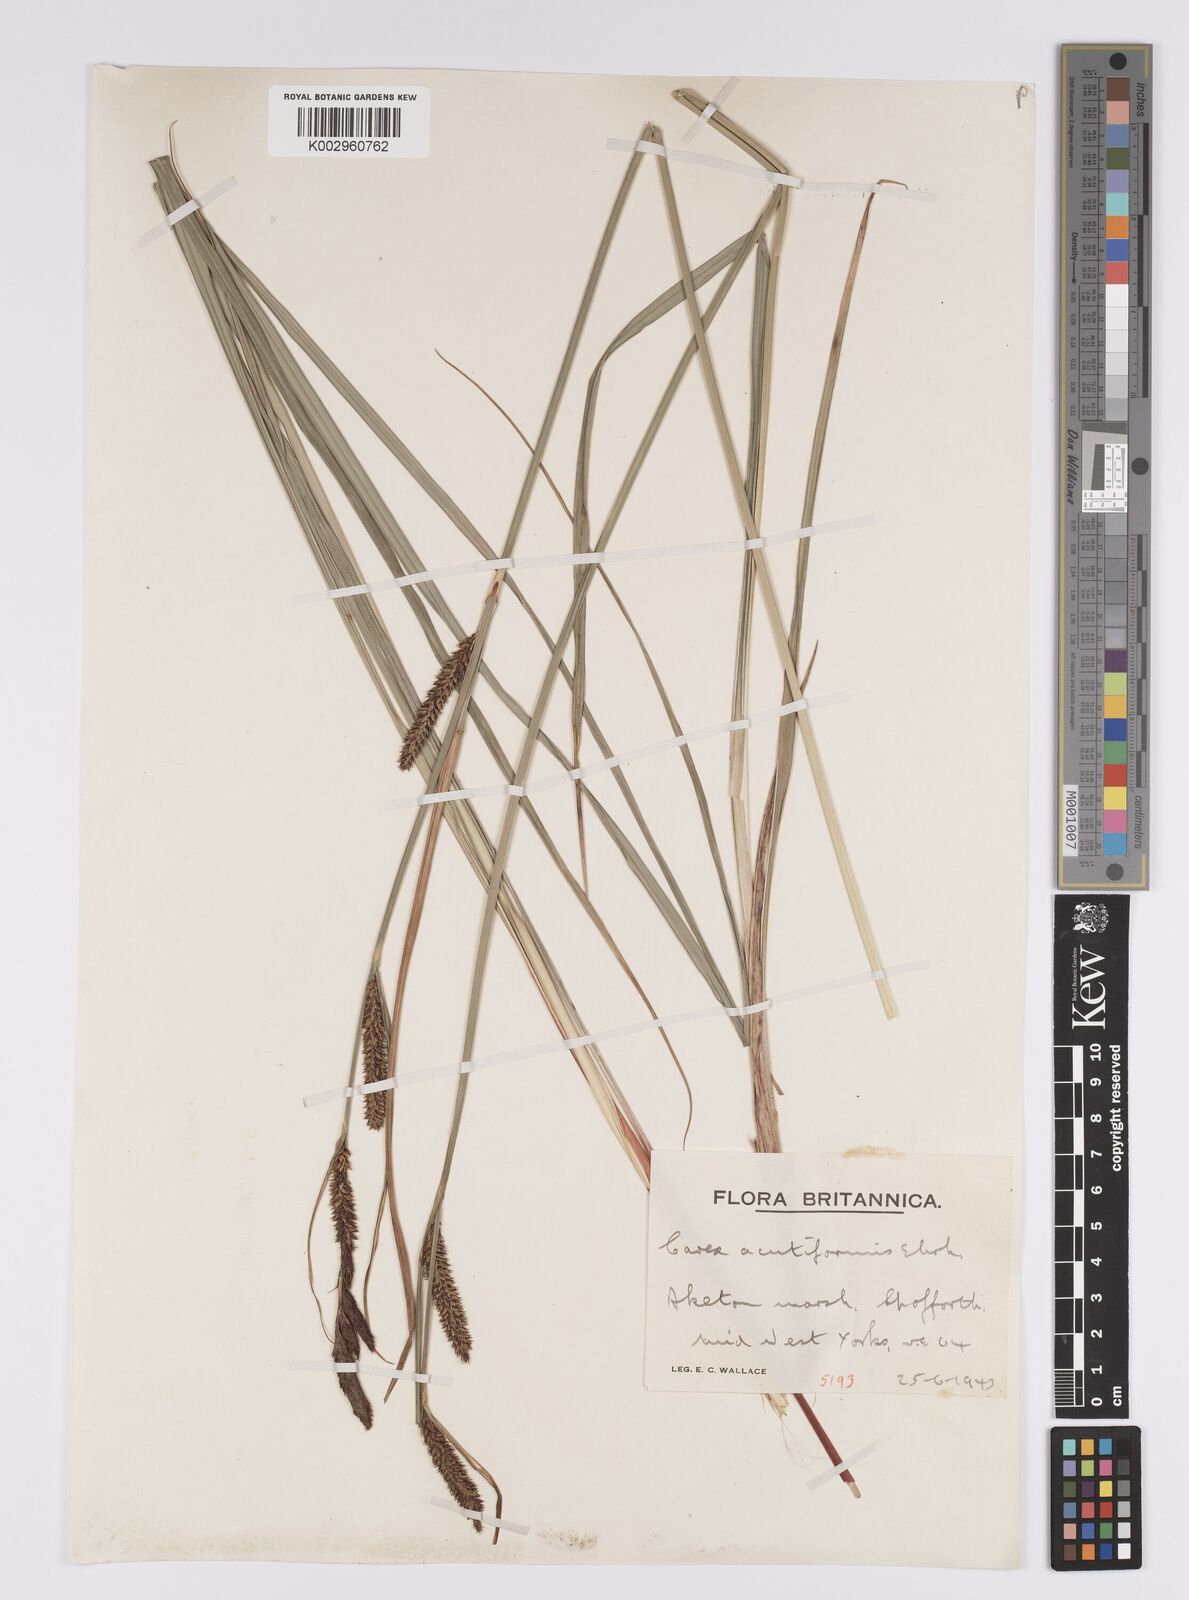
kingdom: Plantae
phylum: Tracheophyta
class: Liliopsida
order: Poales
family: Cyperaceae
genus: Carex
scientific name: Carex acutiformis
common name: Lesser pond-sedge
